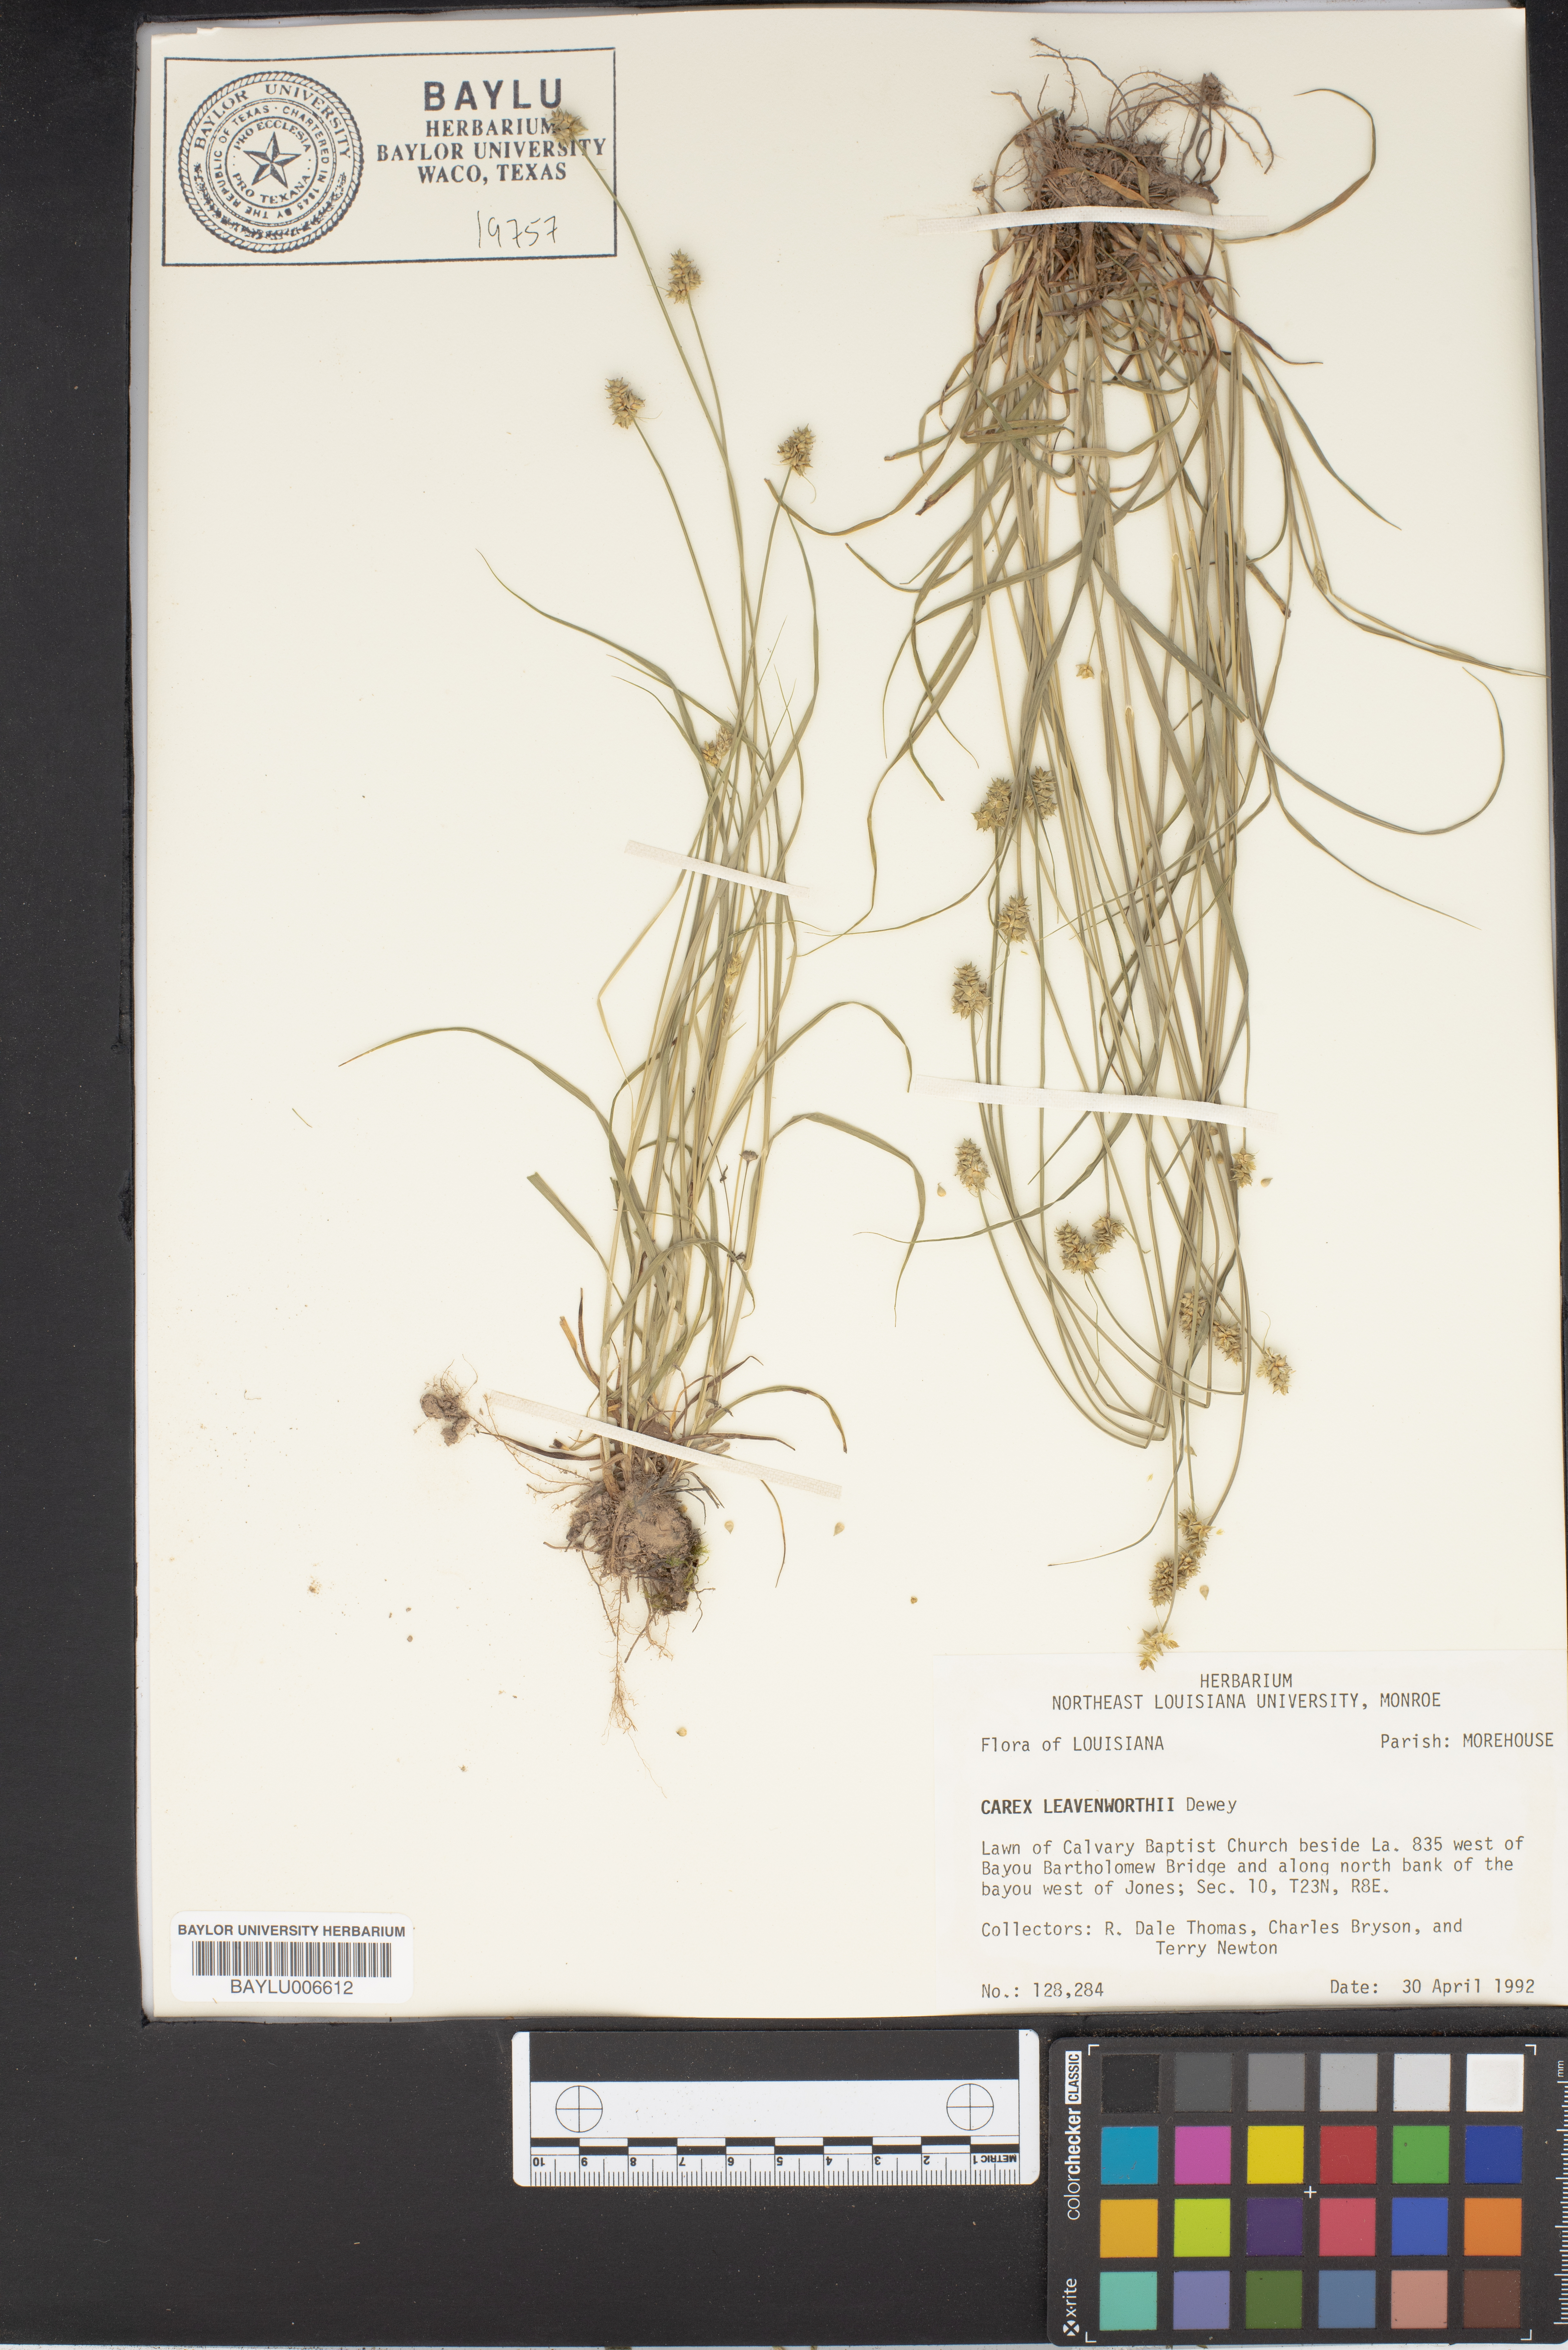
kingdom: Plantae
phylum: Tracheophyta
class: Liliopsida
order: Poales
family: Cyperaceae
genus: Carex
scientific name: Carex leavenworthii
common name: Leavenworth's bracted sedge
